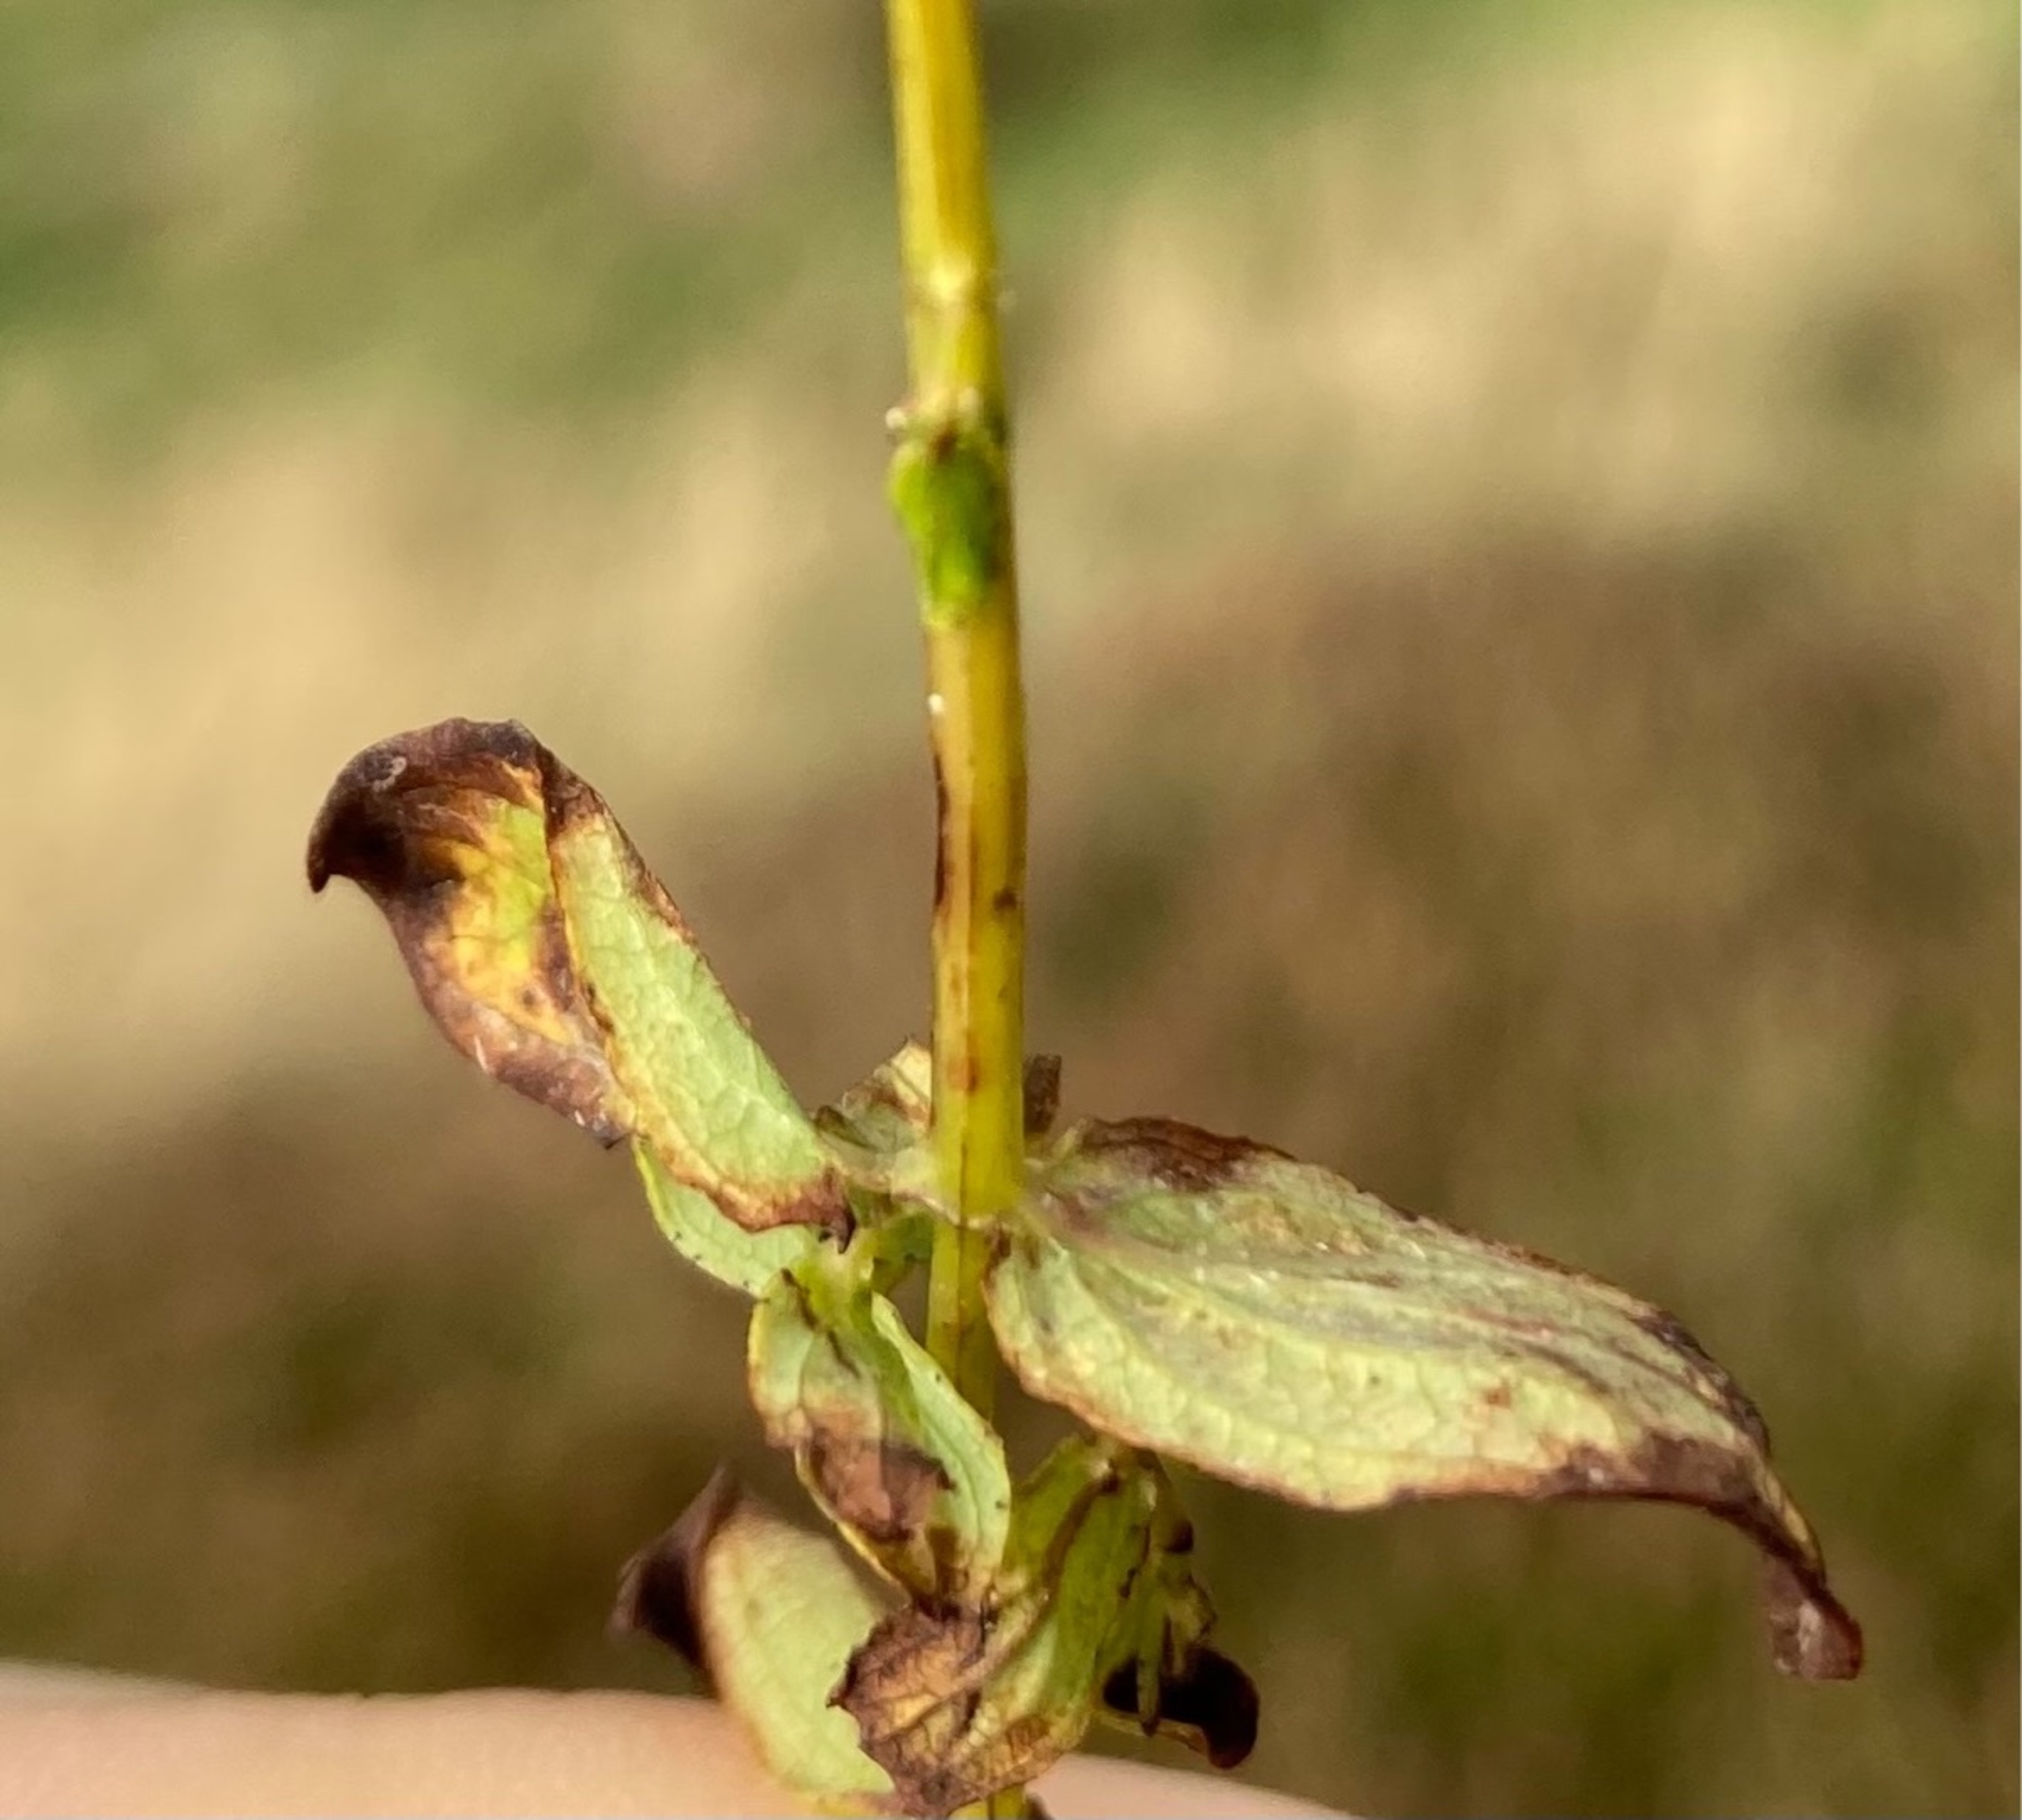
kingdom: Plantae
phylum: Tracheophyta
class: Magnoliopsida
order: Malpighiales
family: Hypericaceae
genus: Hypericum
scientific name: Hypericum maculatum
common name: Kantet perikon
